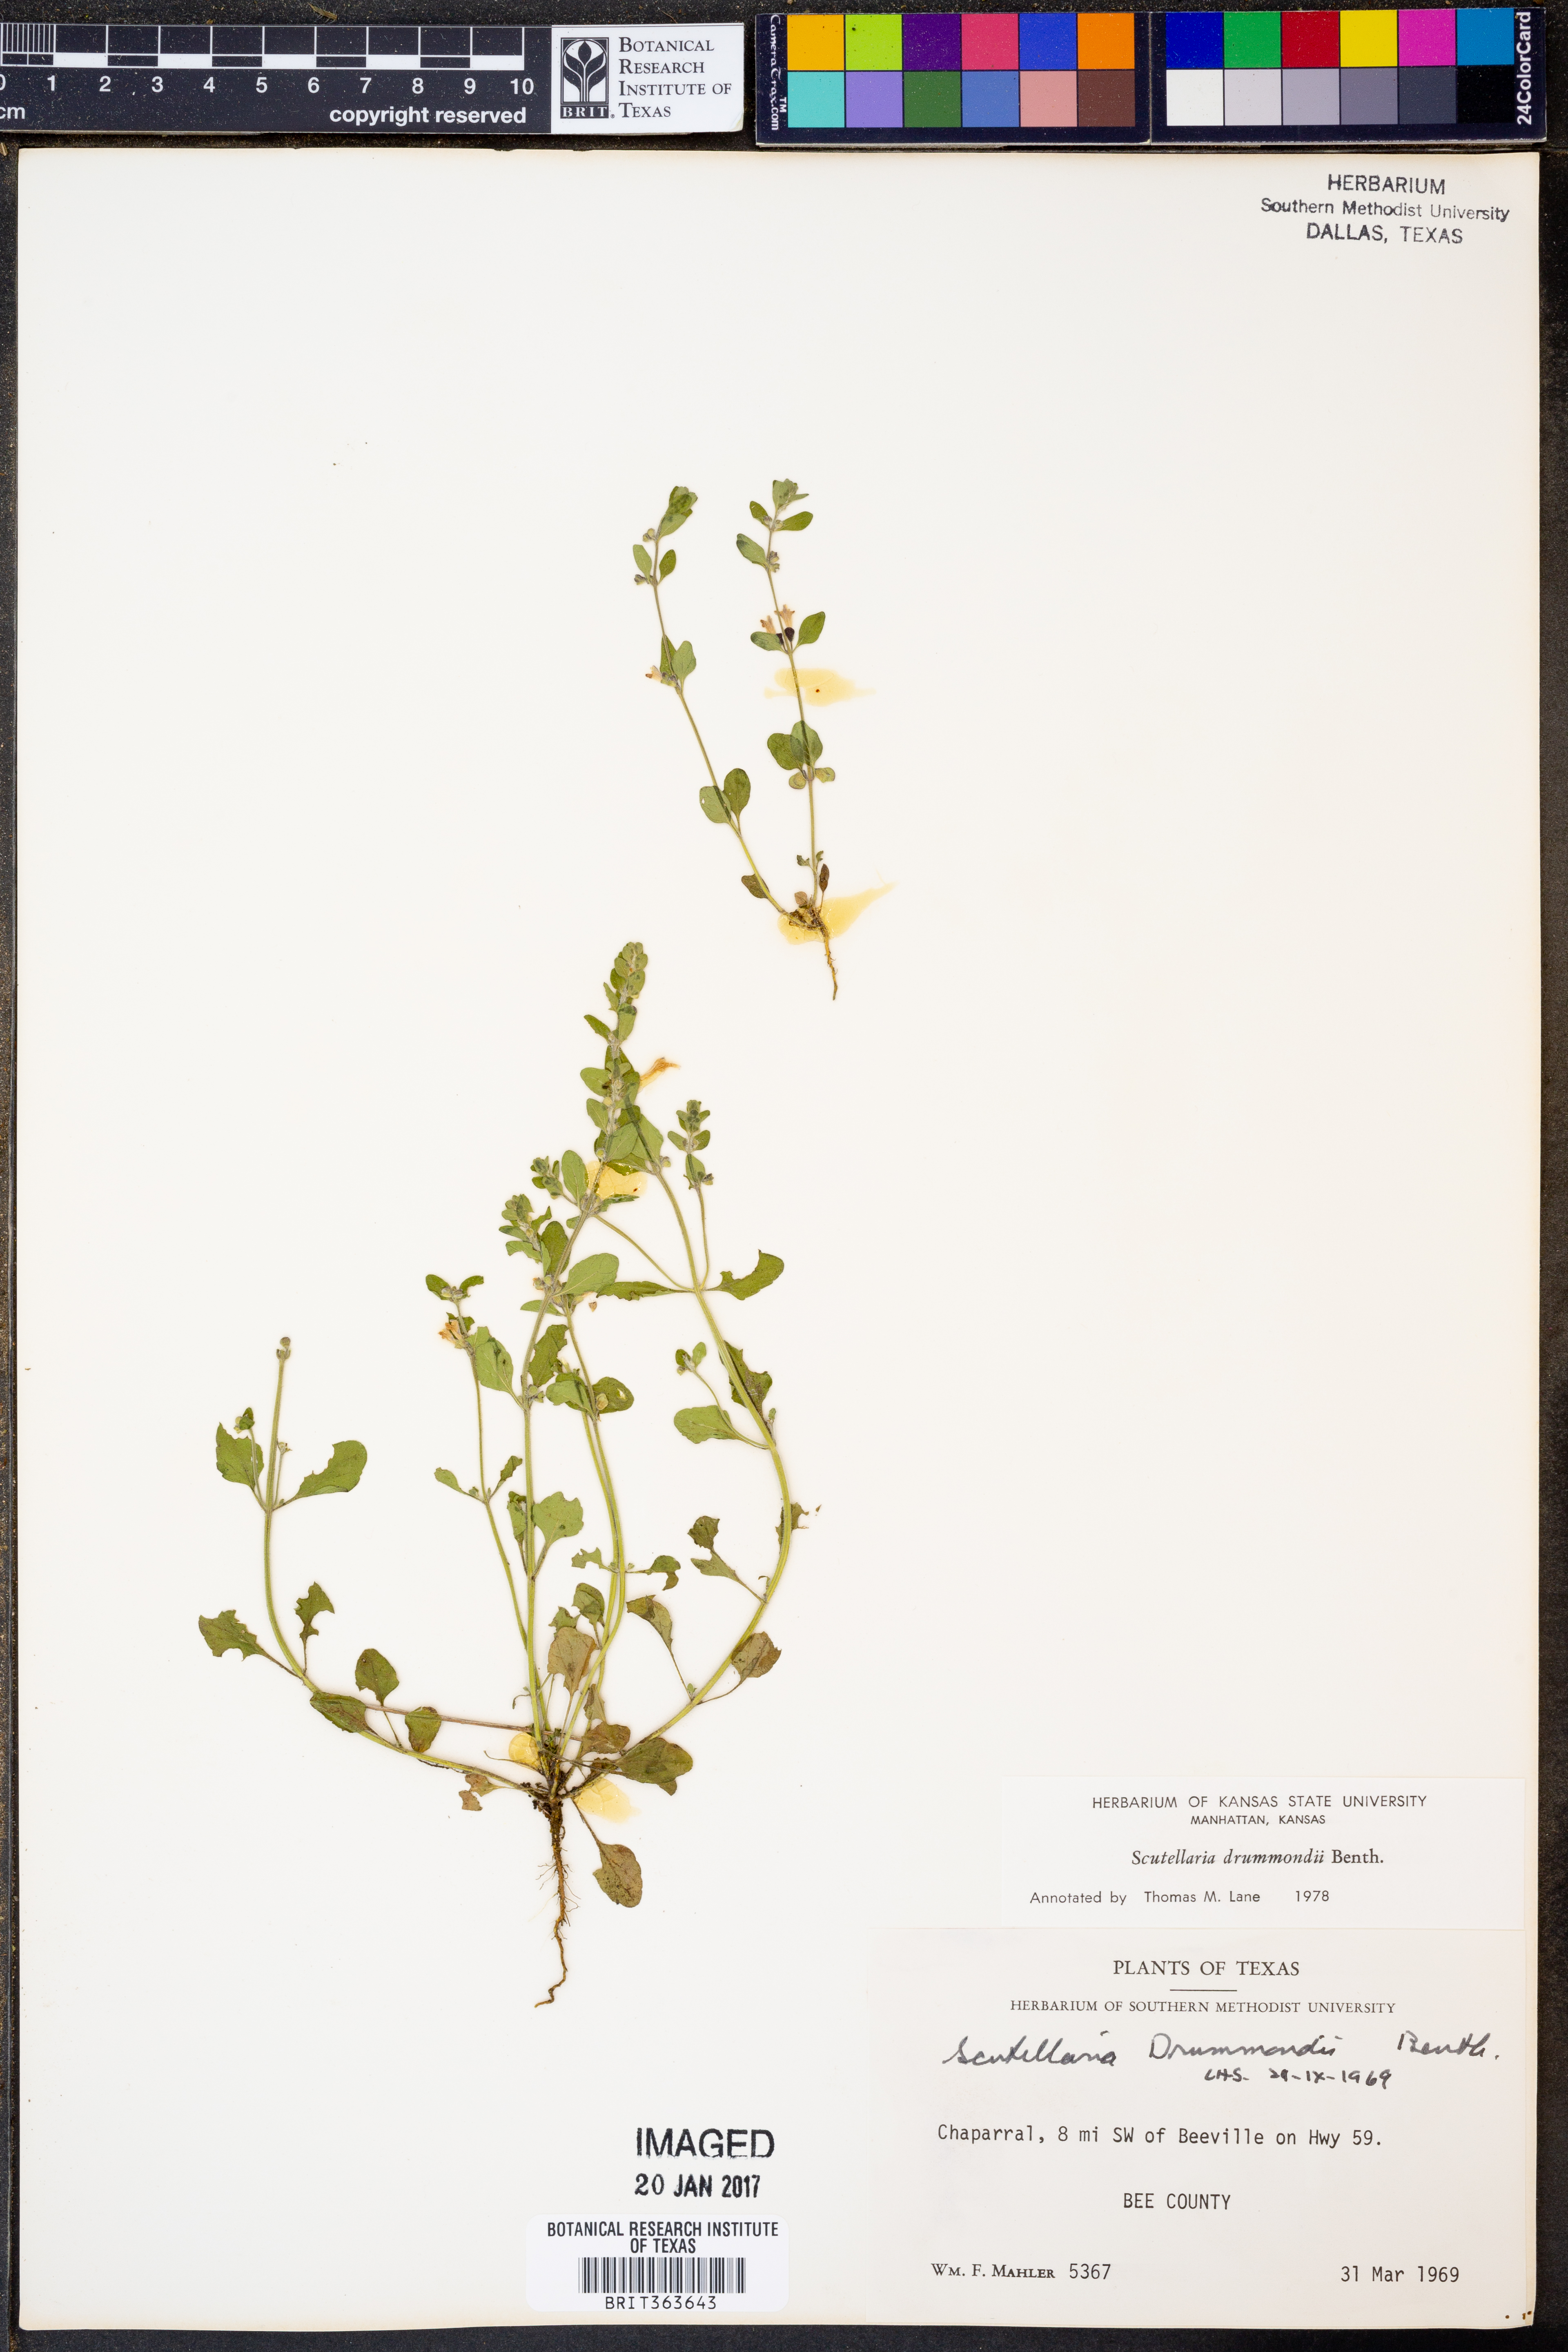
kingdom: Plantae
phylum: Tracheophyta
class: Magnoliopsida
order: Lamiales
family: Lamiaceae
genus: Scutellaria
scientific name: Scutellaria drummondii
